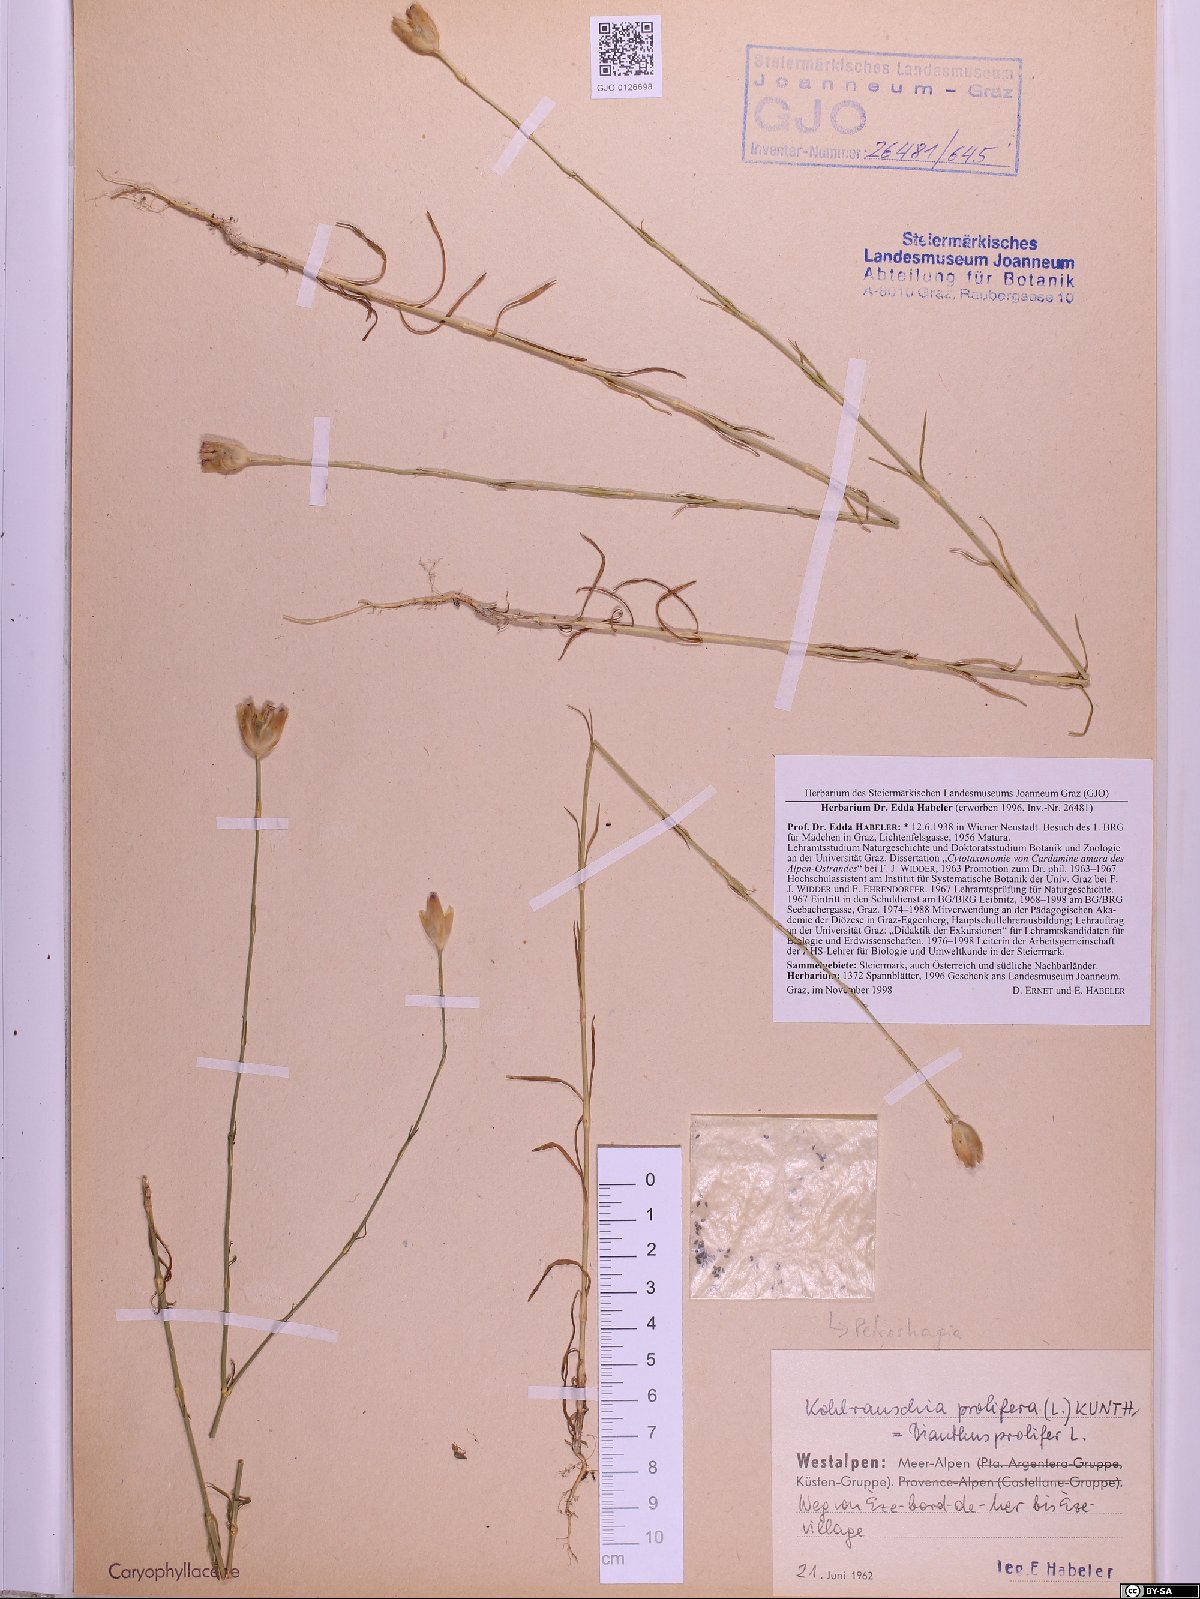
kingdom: Plantae
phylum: Tracheophyta
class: Magnoliopsida
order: Caryophyllales
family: Caryophyllaceae
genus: Petrorhagia
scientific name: Petrorhagia prolifera
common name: Proliferous pink
